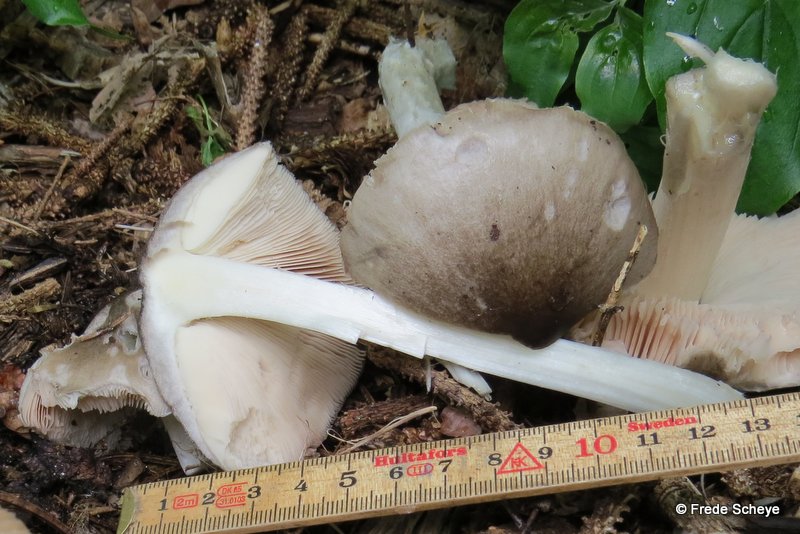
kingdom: Fungi
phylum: Basidiomycota
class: Agaricomycetes
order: Agaricales
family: Pluteaceae
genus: Volvopluteus
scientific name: Volvopluteus gloiocephalus
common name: høj posesvamp
